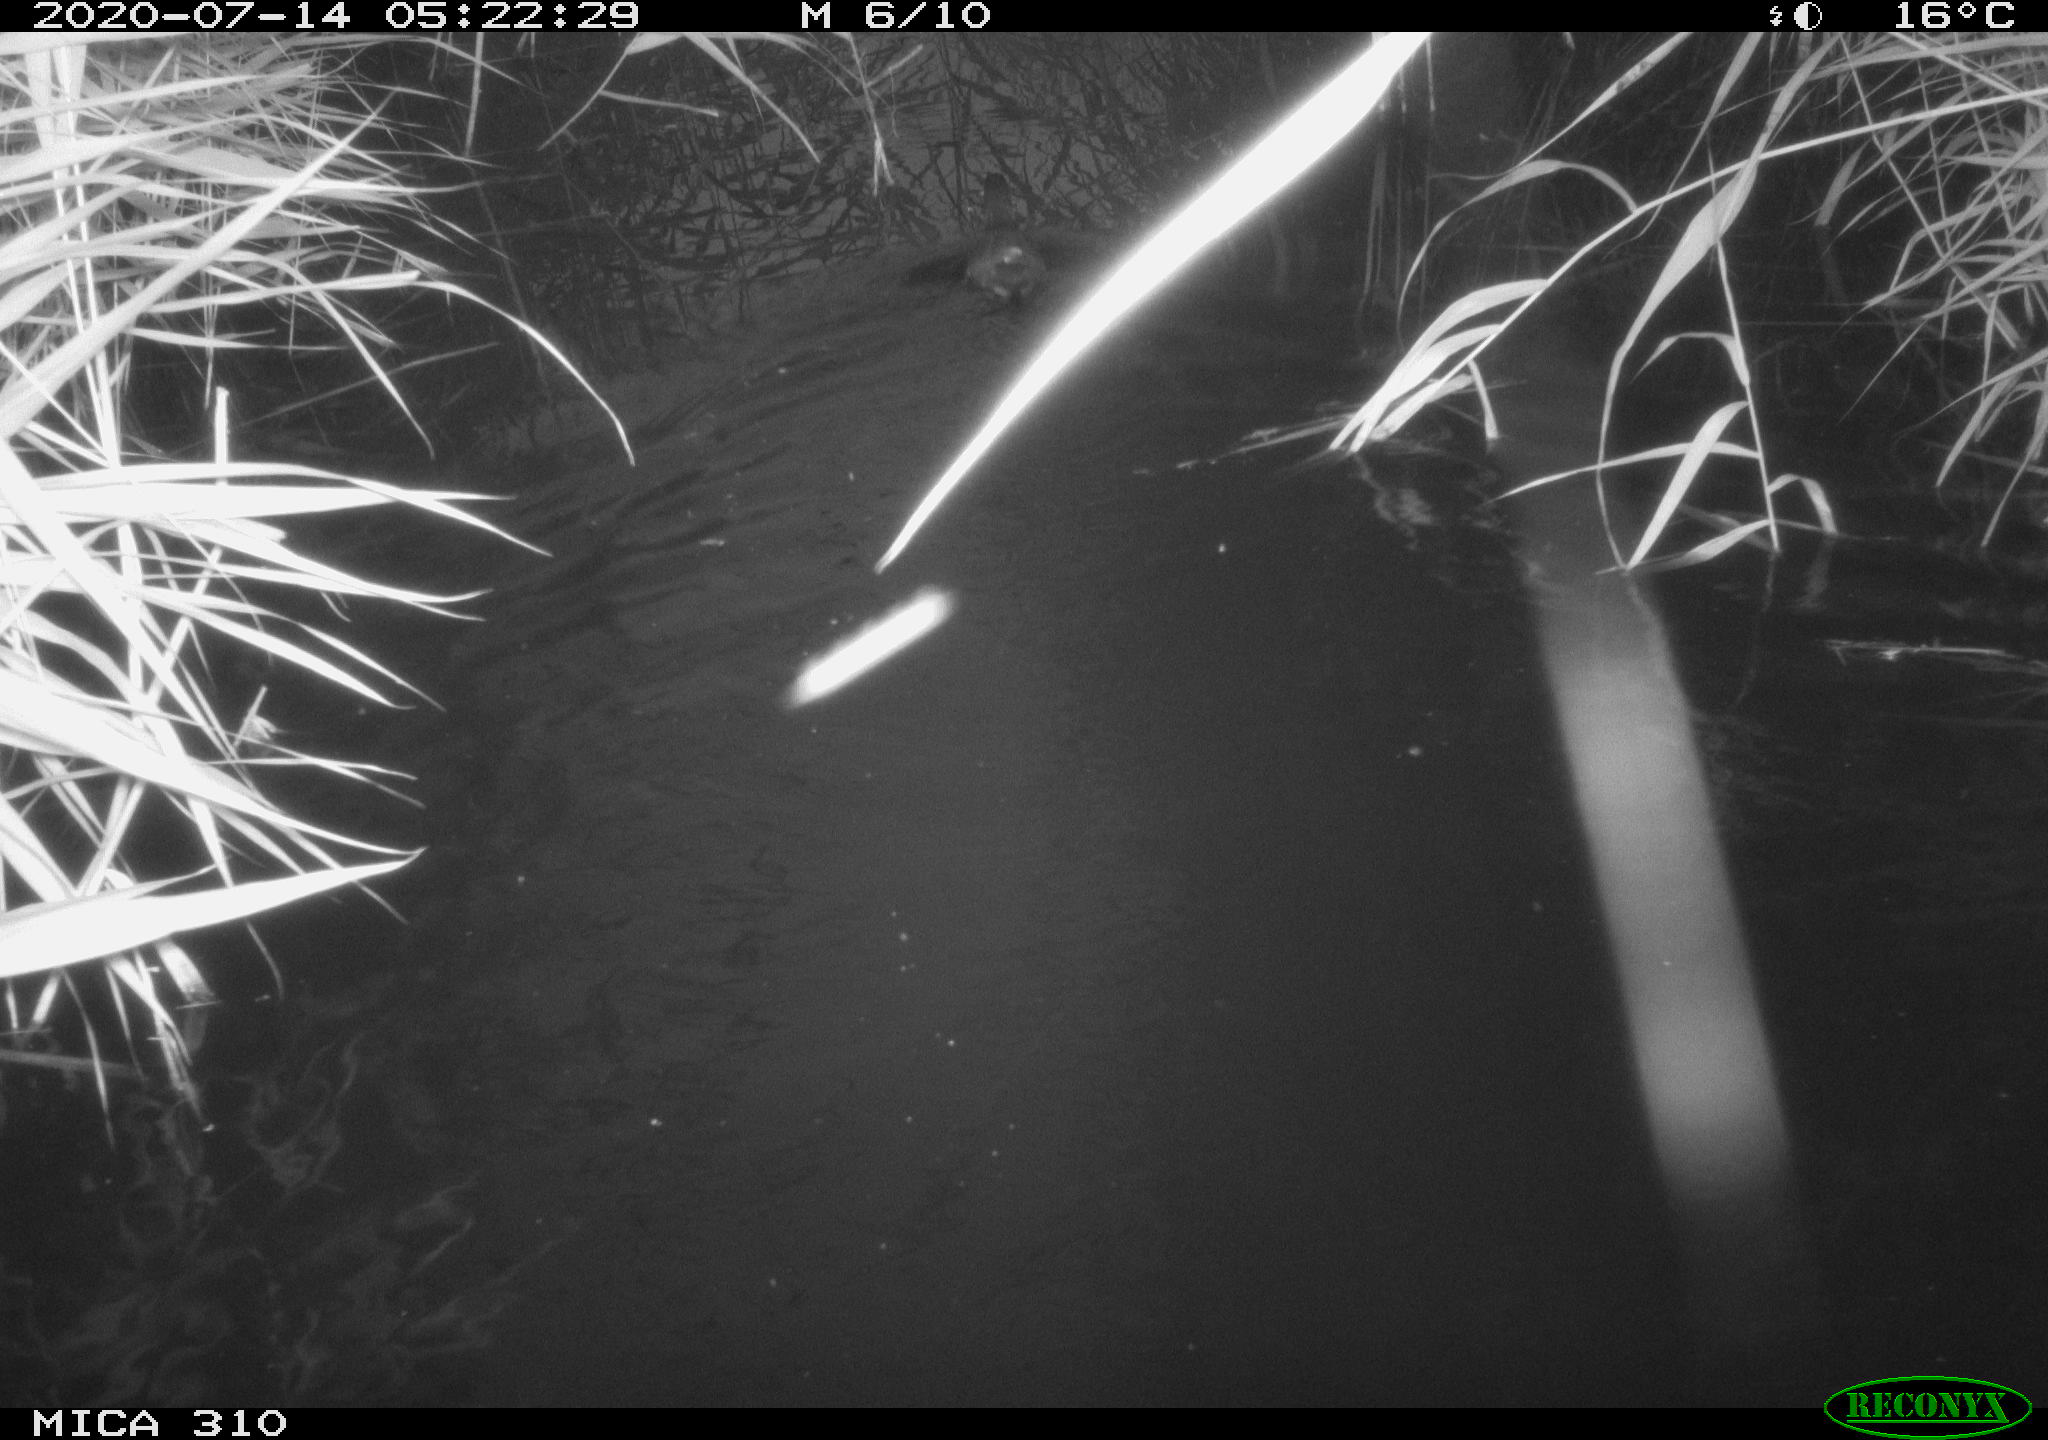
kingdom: Animalia
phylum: Chordata
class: Aves
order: Gruiformes
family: Rallidae
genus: Gallinula
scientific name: Gallinula chloropus
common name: Common moorhen
